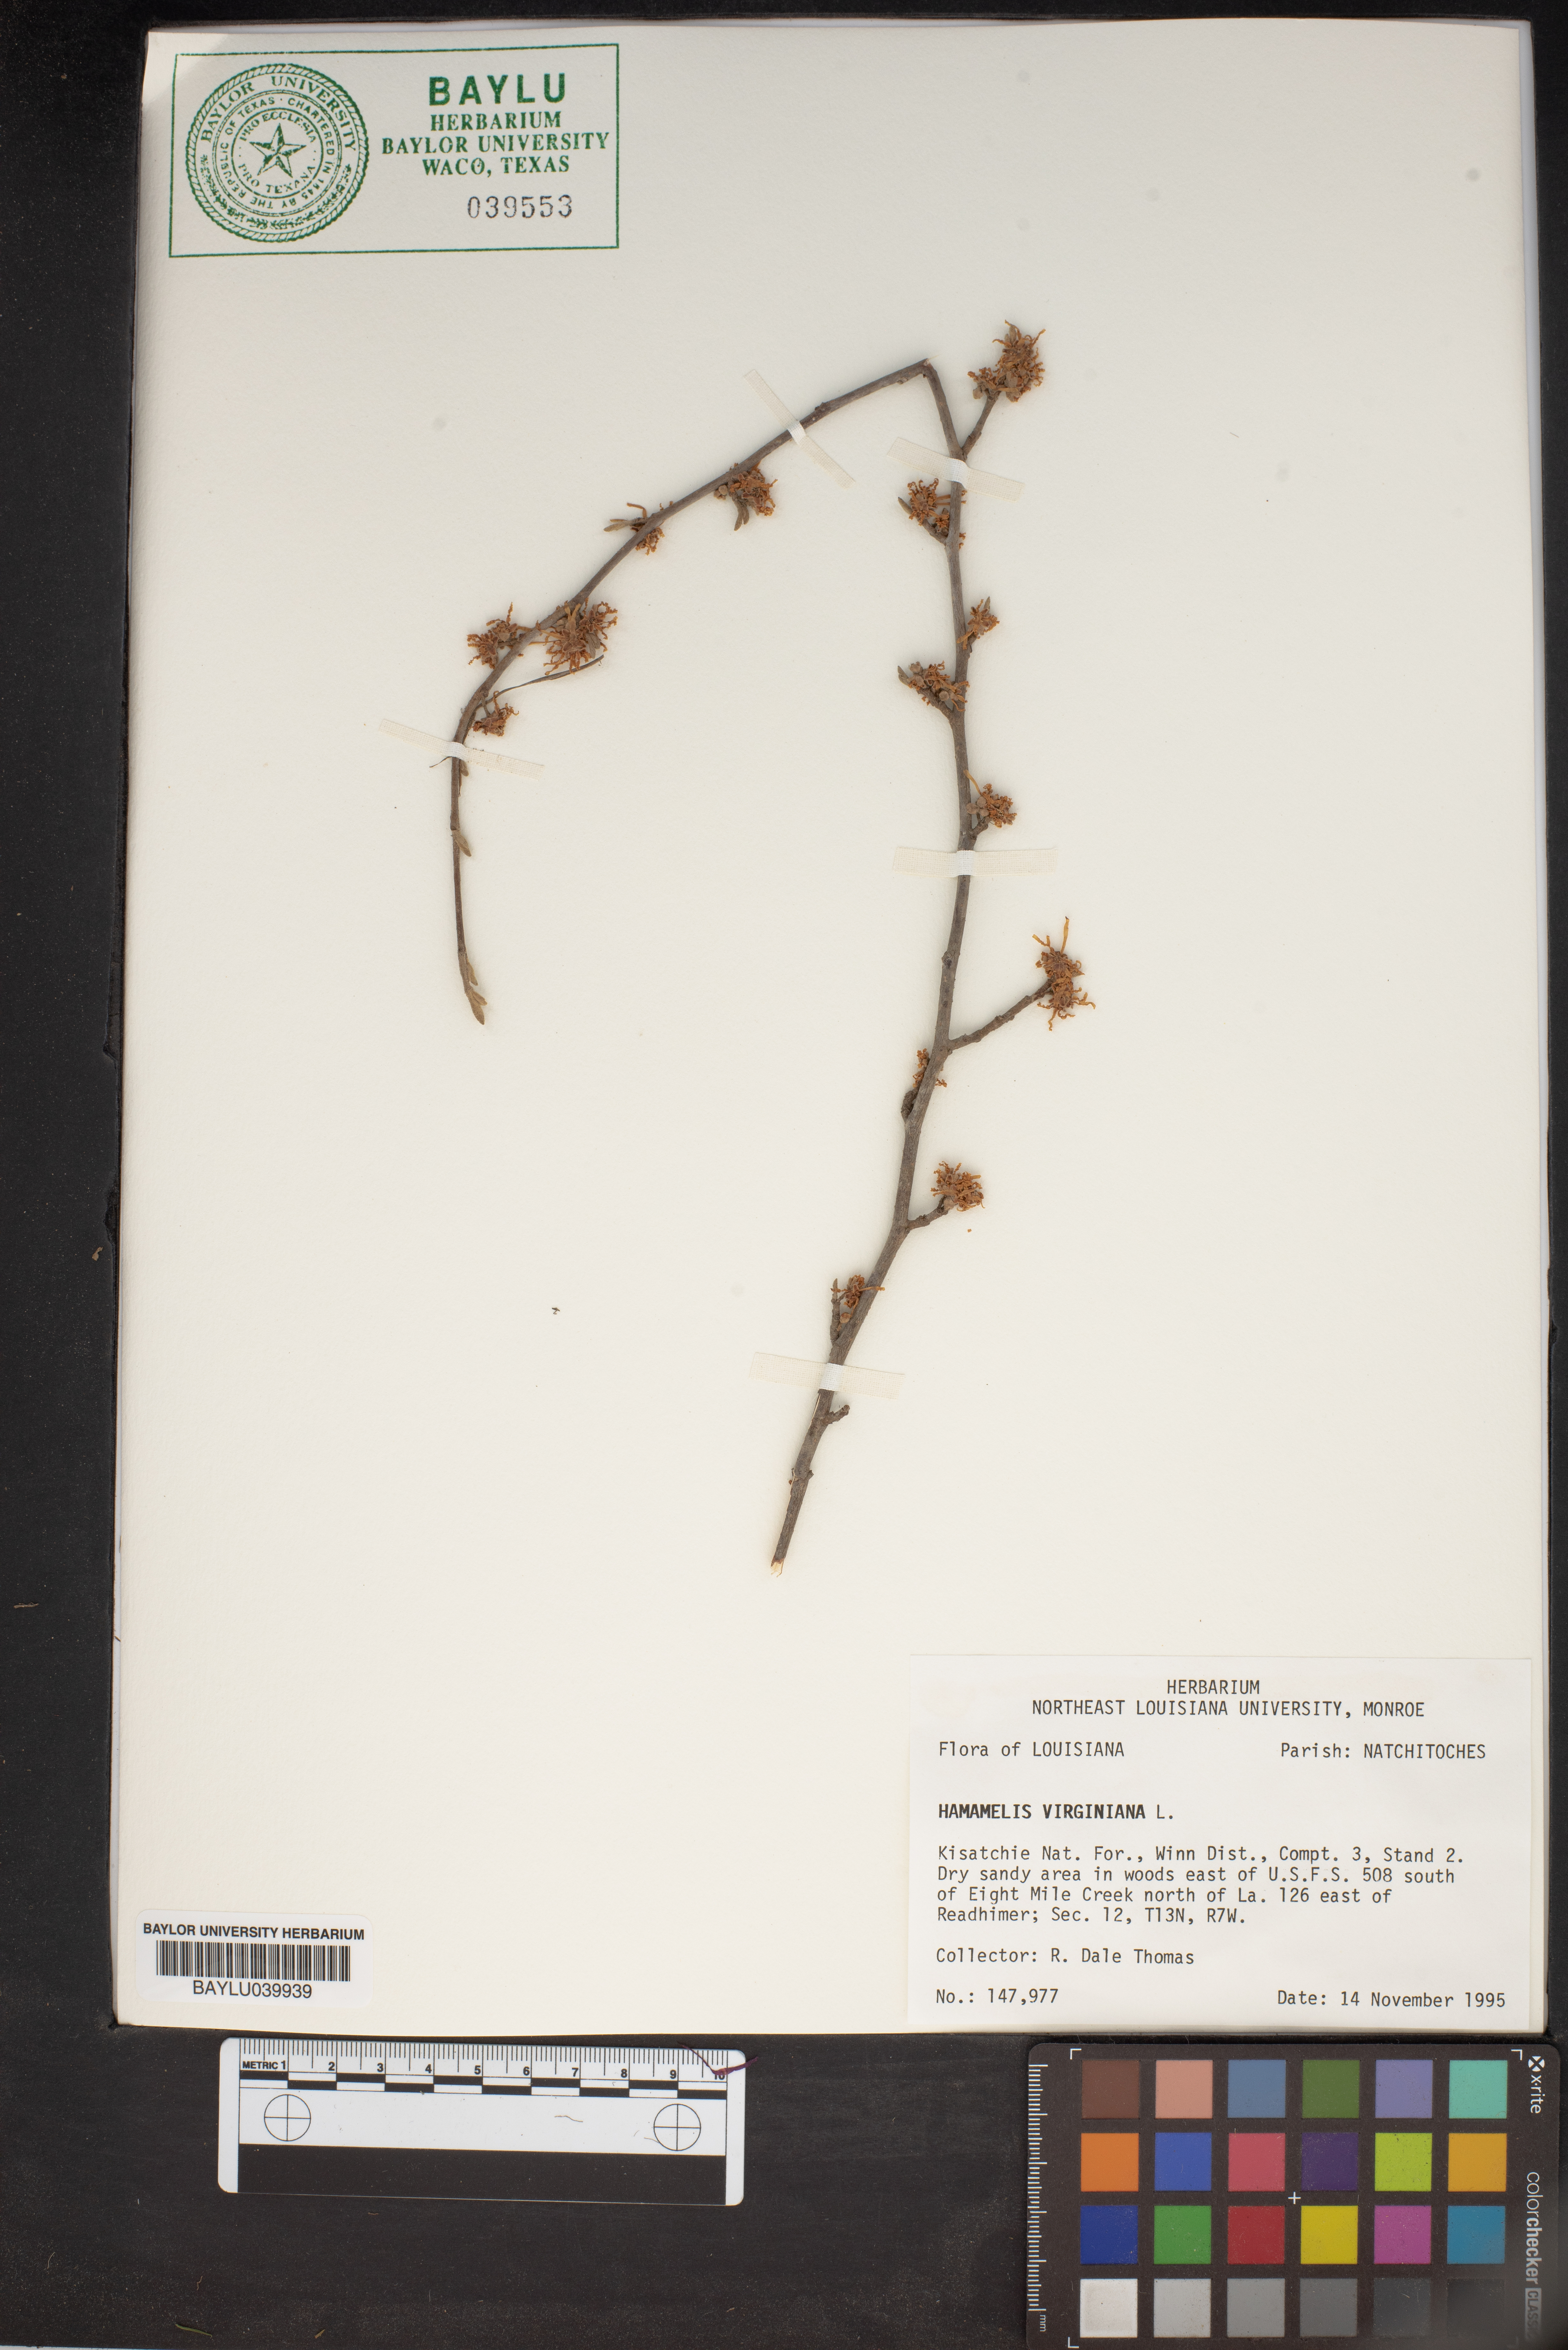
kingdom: Plantae
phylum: Tracheophyta
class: Magnoliopsida
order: Saxifragales
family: Hamamelidaceae
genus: Hamamelis
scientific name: Hamamelis virginiana
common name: Witch-hazel
